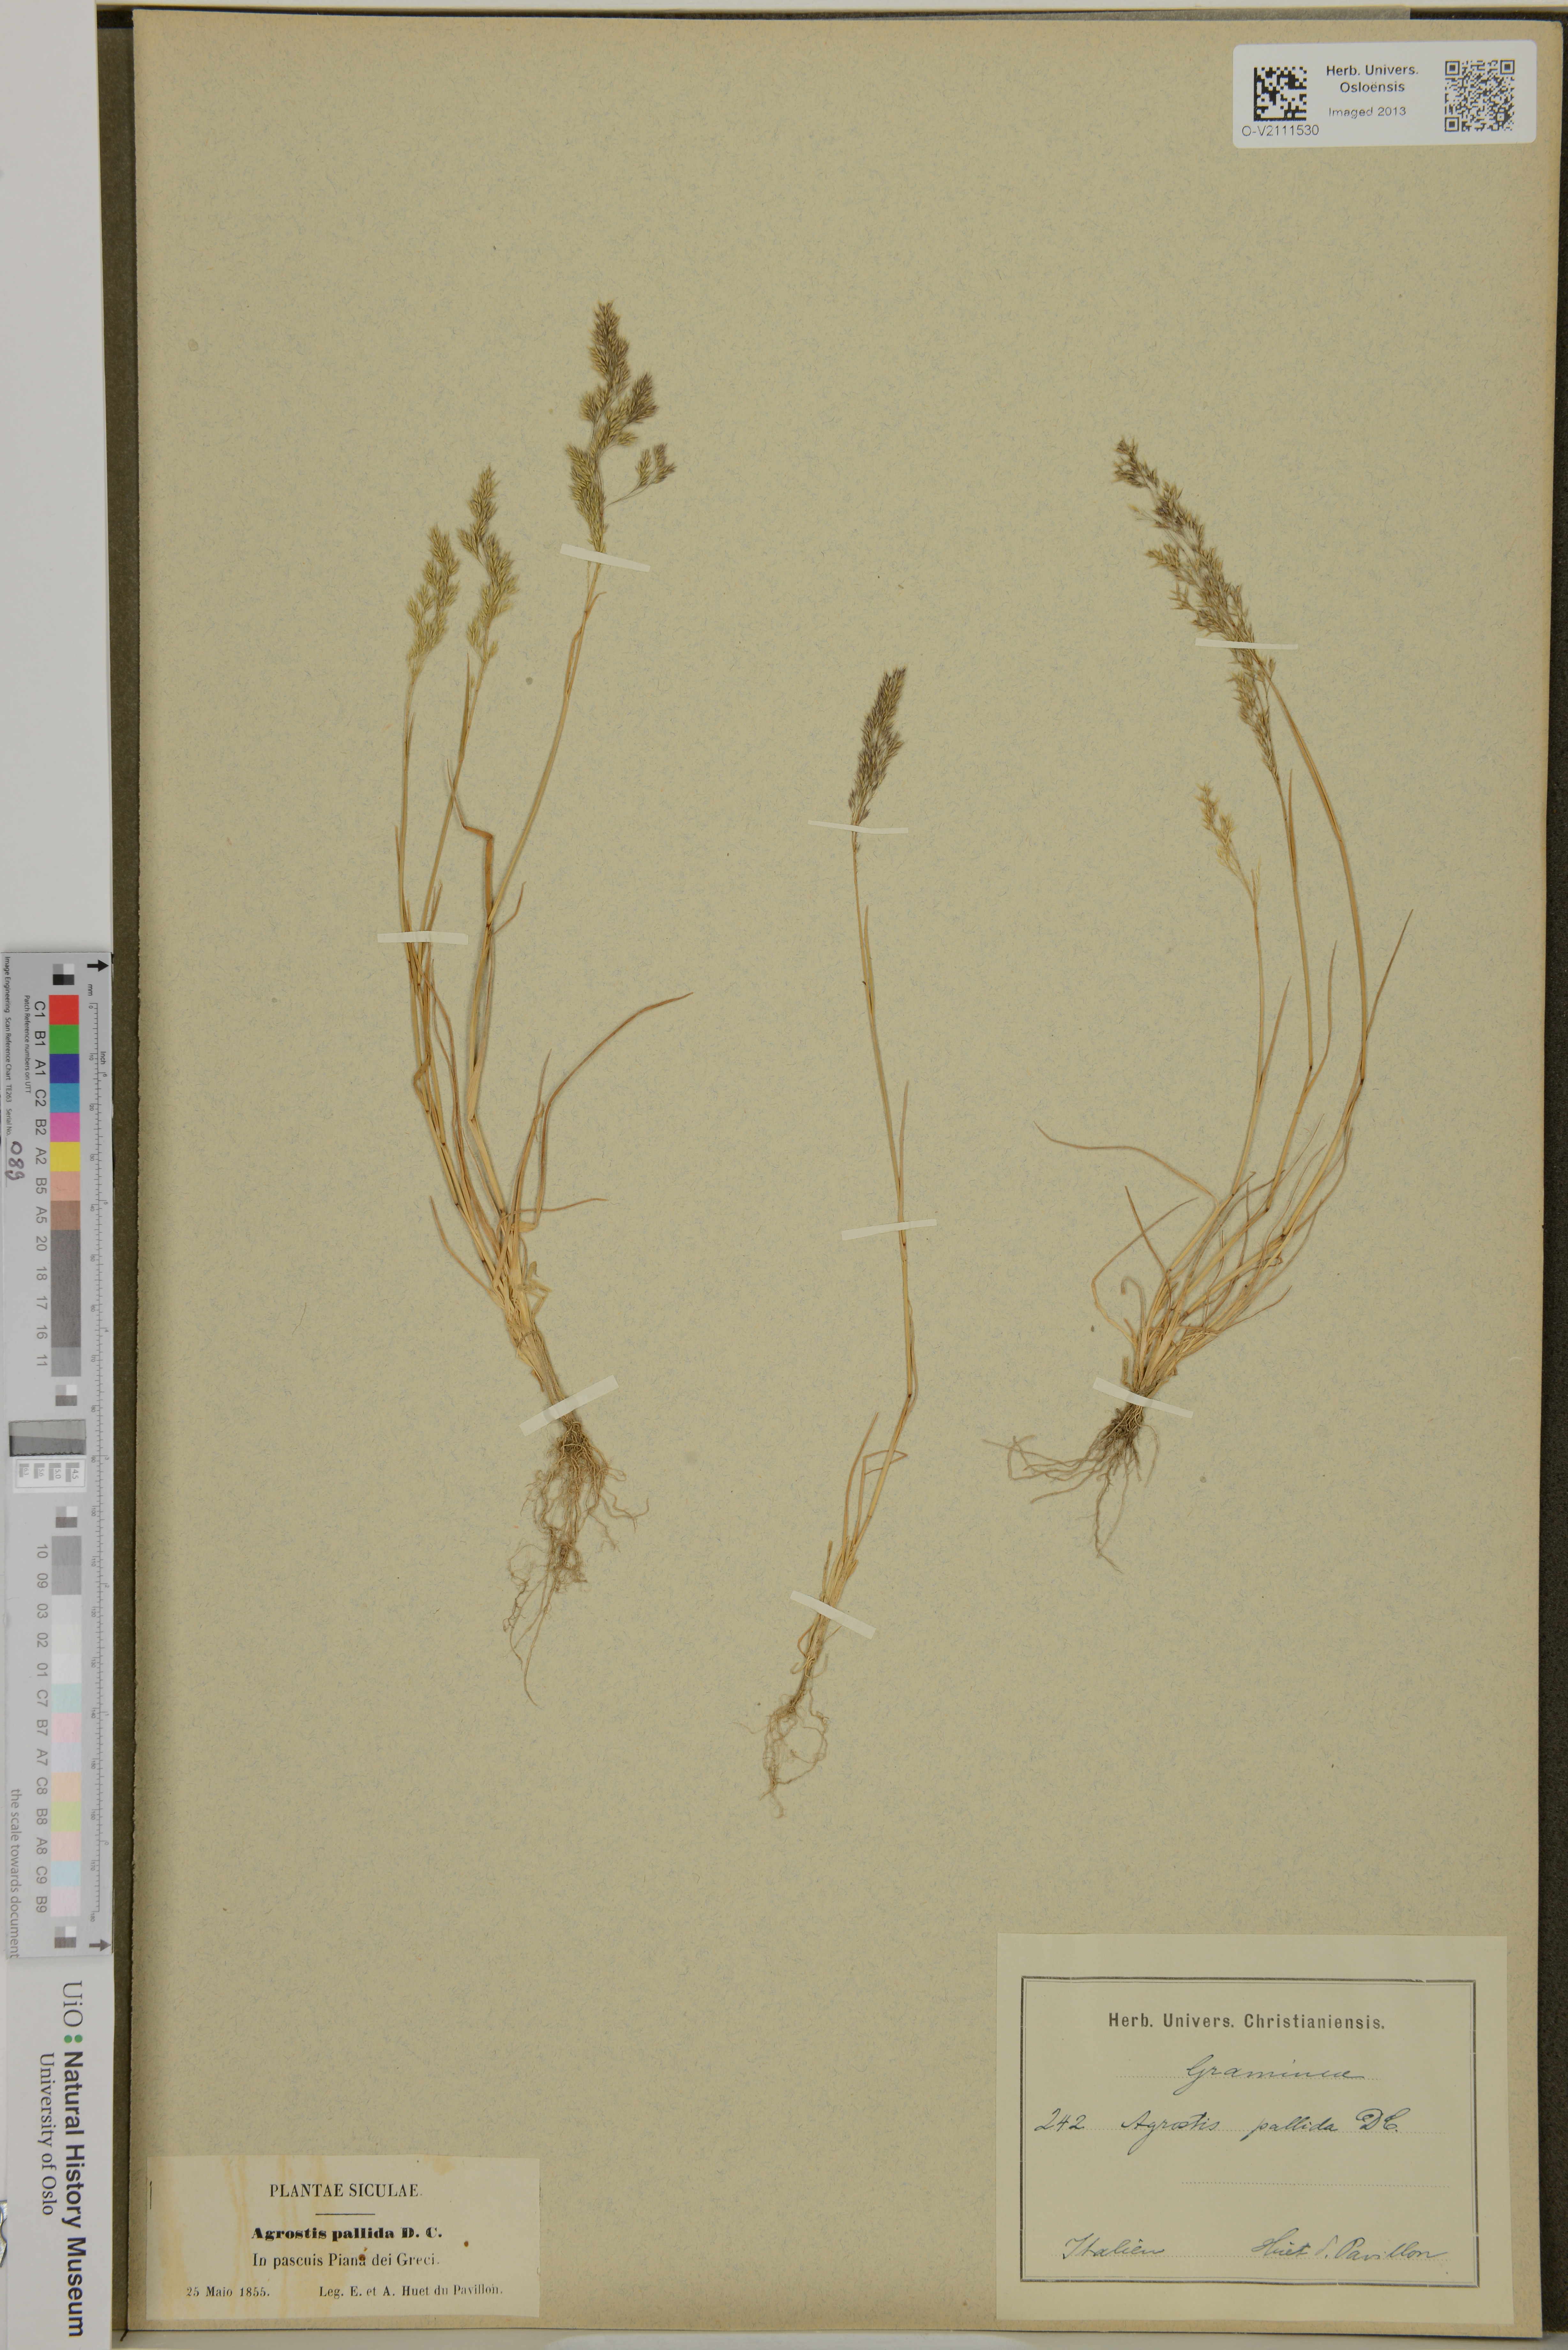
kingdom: Plantae
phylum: Tracheophyta
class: Liliopsida
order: Poales
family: Poaceae
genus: Agrostis
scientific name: Agrostis
